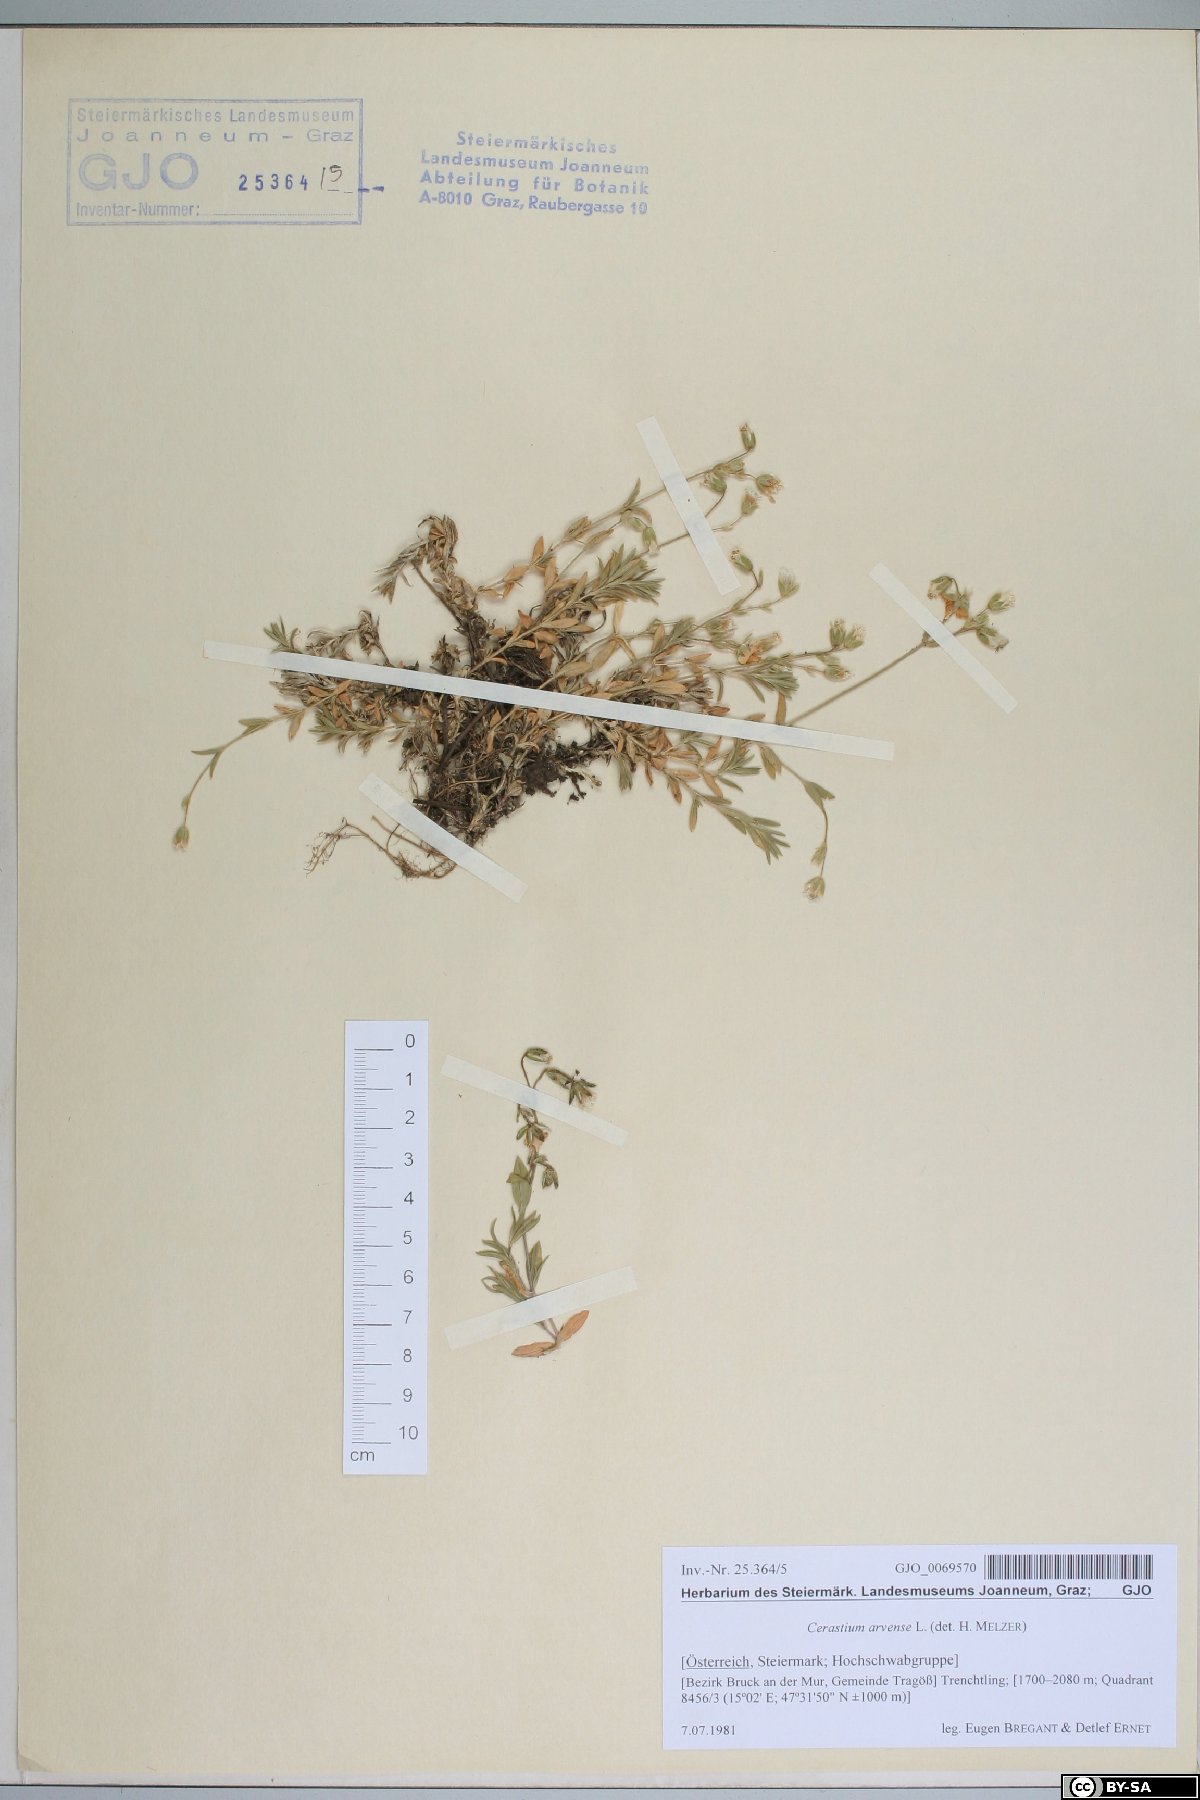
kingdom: Plantae
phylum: Tracheophyta
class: Magnoliopsida
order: Caryophyllales
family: Caryophyllaceae
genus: Cerastium
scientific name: Cerastium arvense
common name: Field mouse-ear
